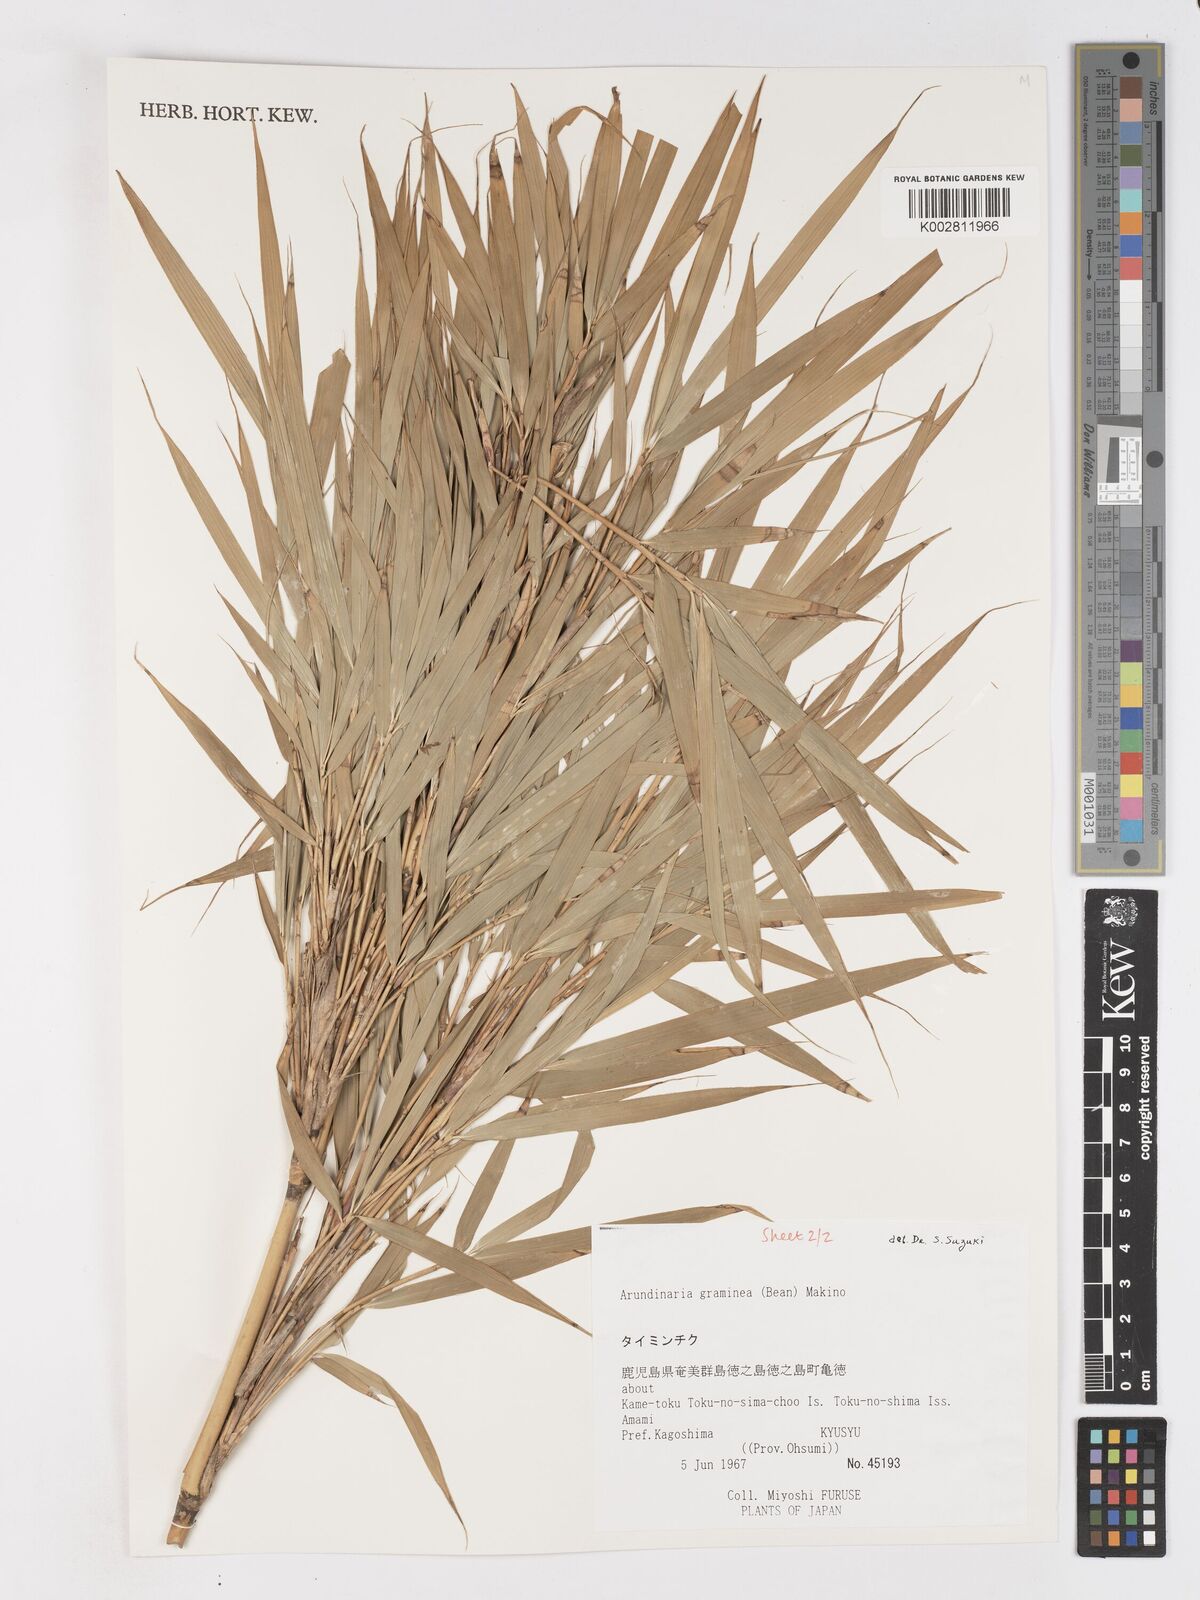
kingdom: Plantae
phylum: Tracheophyta
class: Liliopsida
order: Poales
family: Poaceae
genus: Pleioblastus
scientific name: Pleioblastus gramineus
